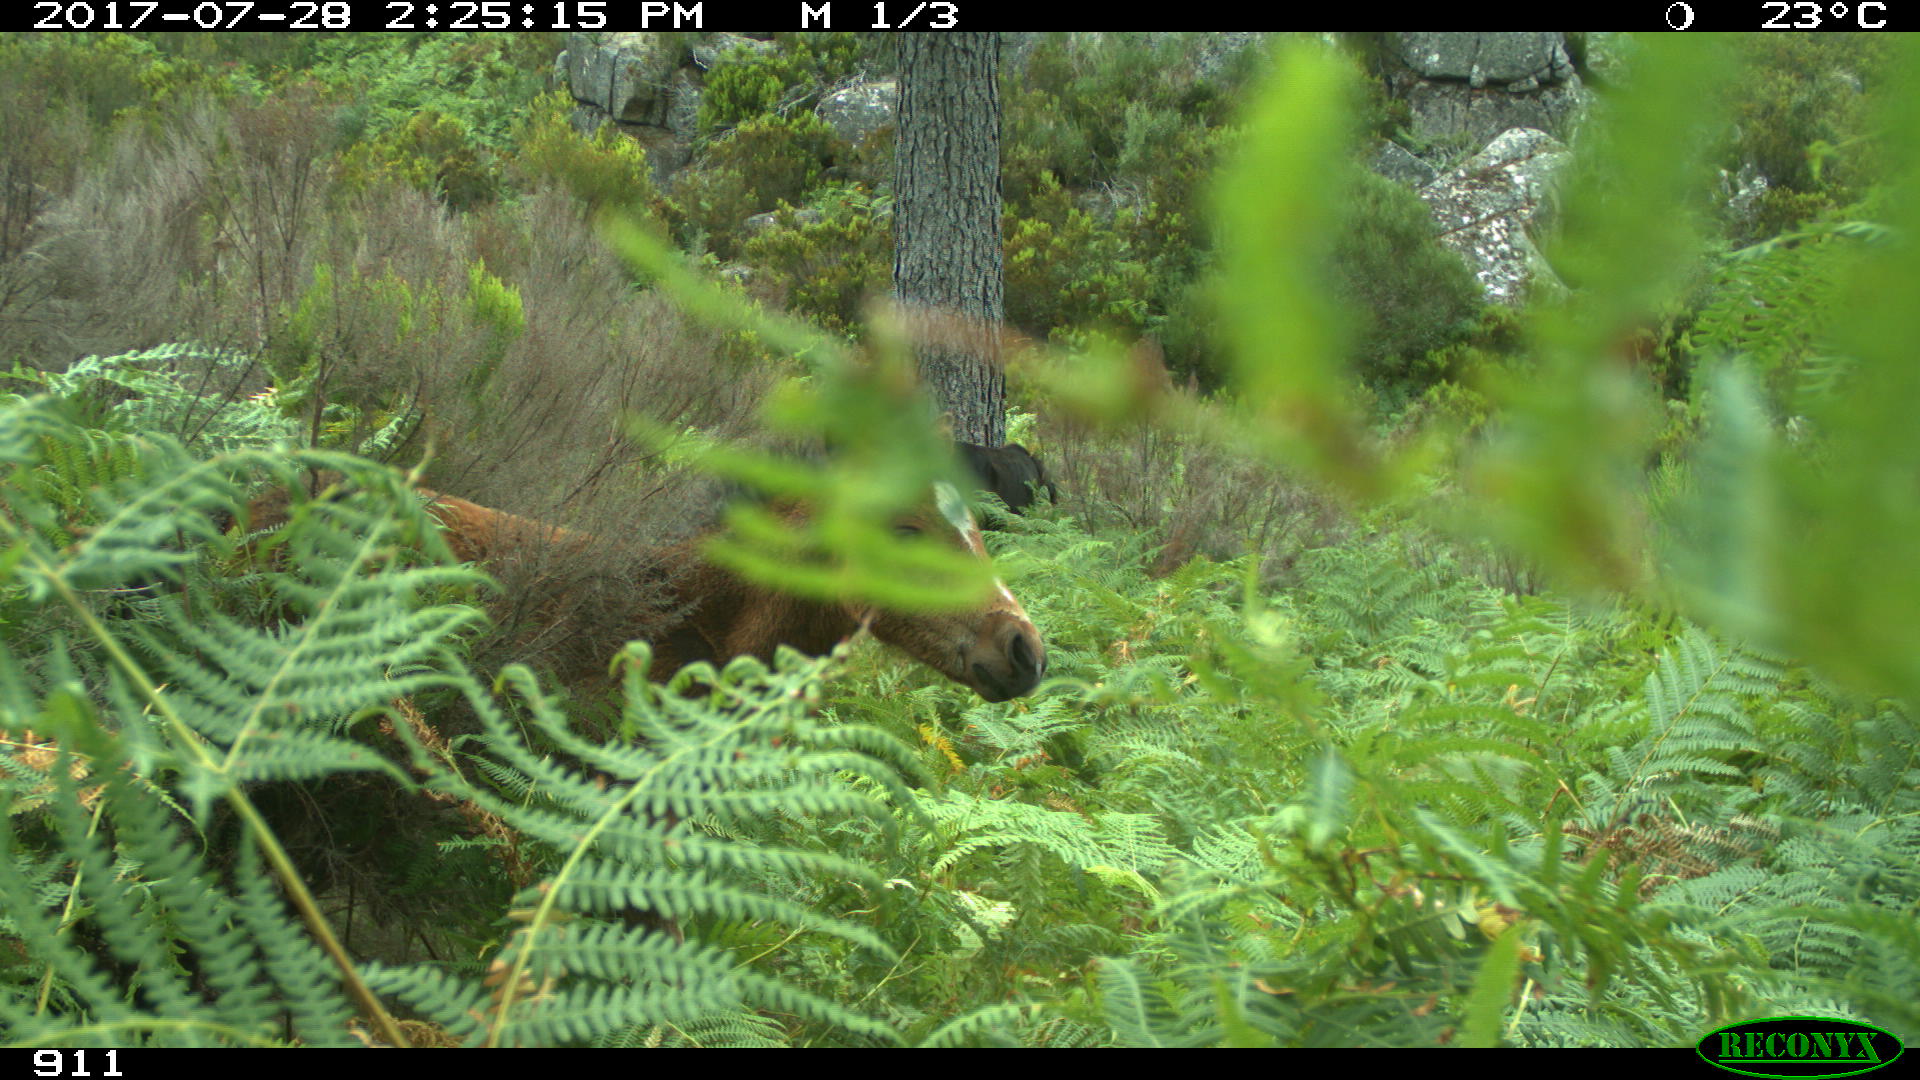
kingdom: Animalia
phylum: Chordata
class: Mammalia
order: Perissodactyla
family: Equidae
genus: Equus
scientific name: Equus caballus
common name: Horse
